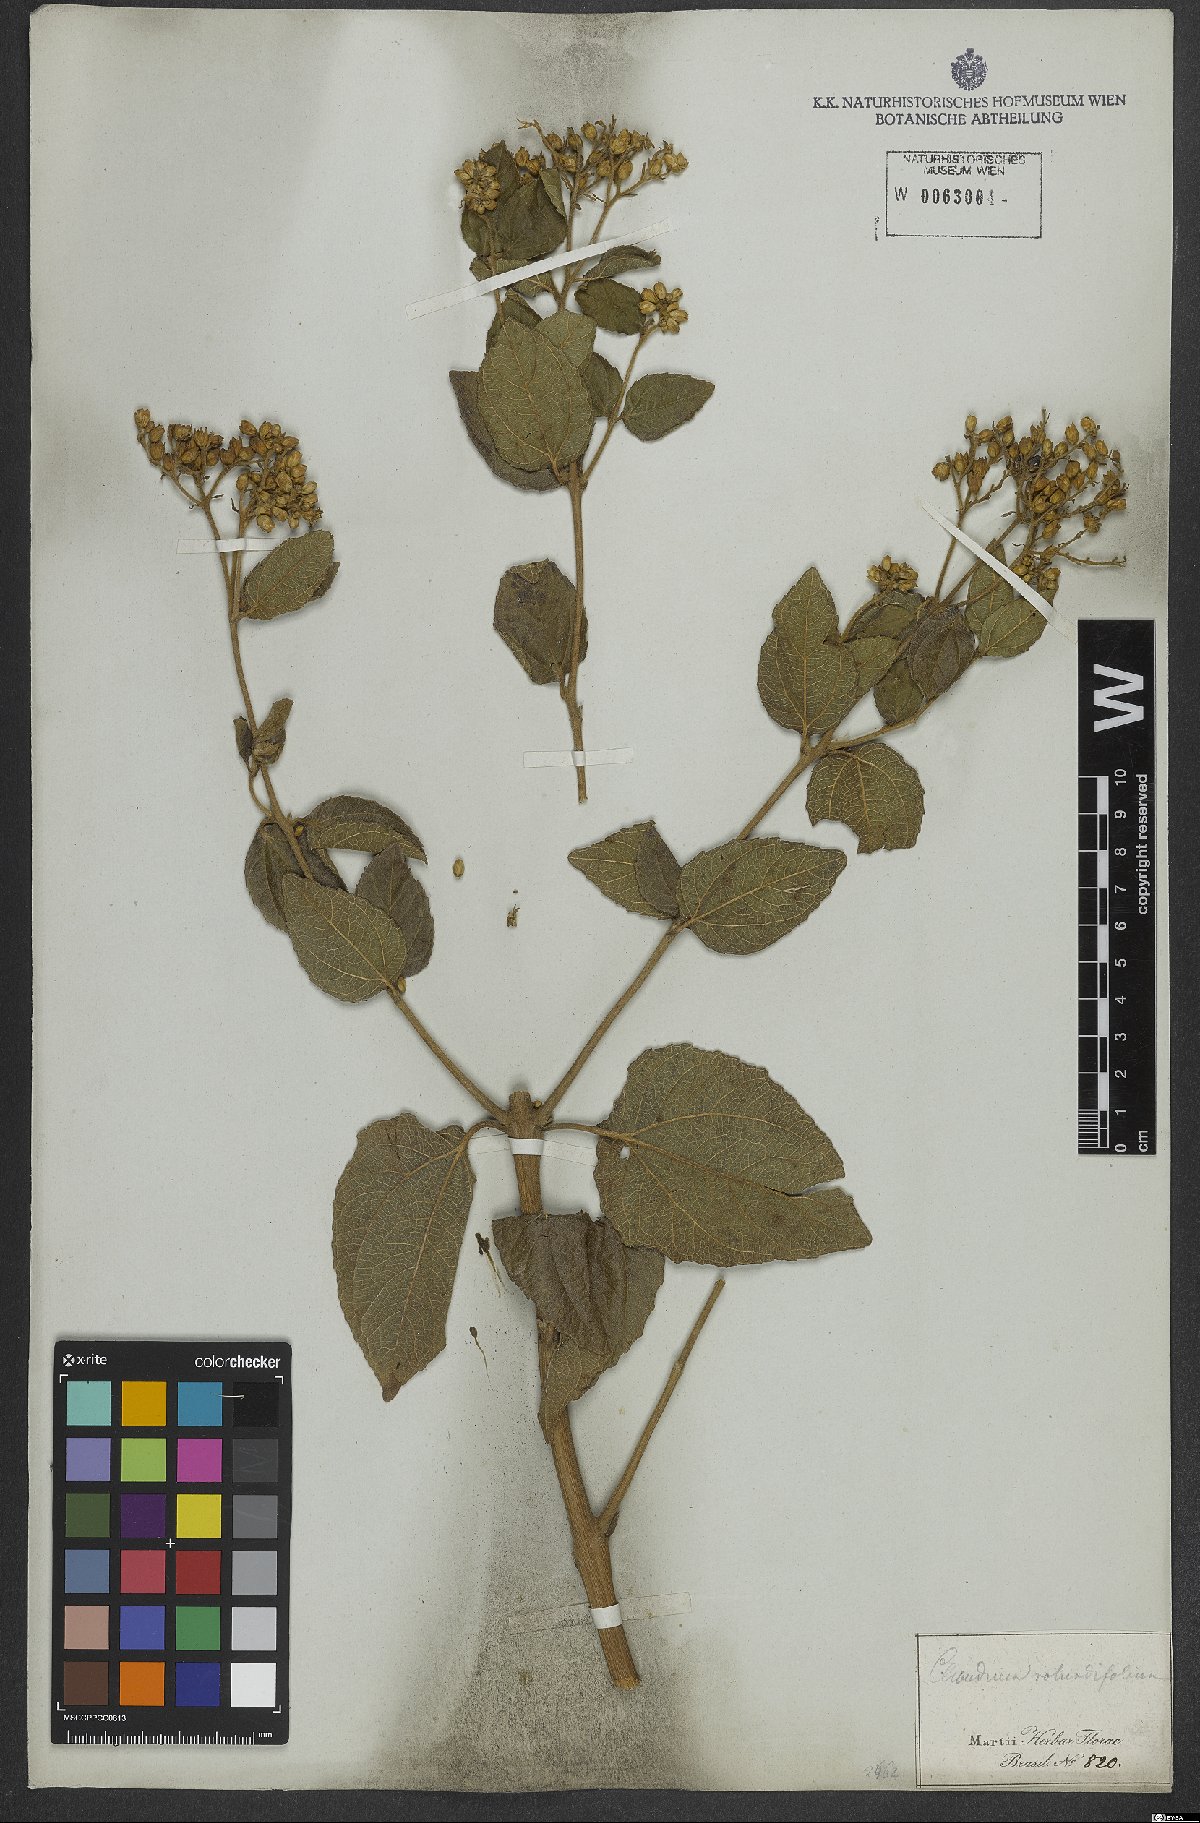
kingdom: Plantae
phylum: Tracheophyta
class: Magnoliopsida
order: Asterales
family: Asteraceae
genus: Clibadium
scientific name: Clibadium armanii
